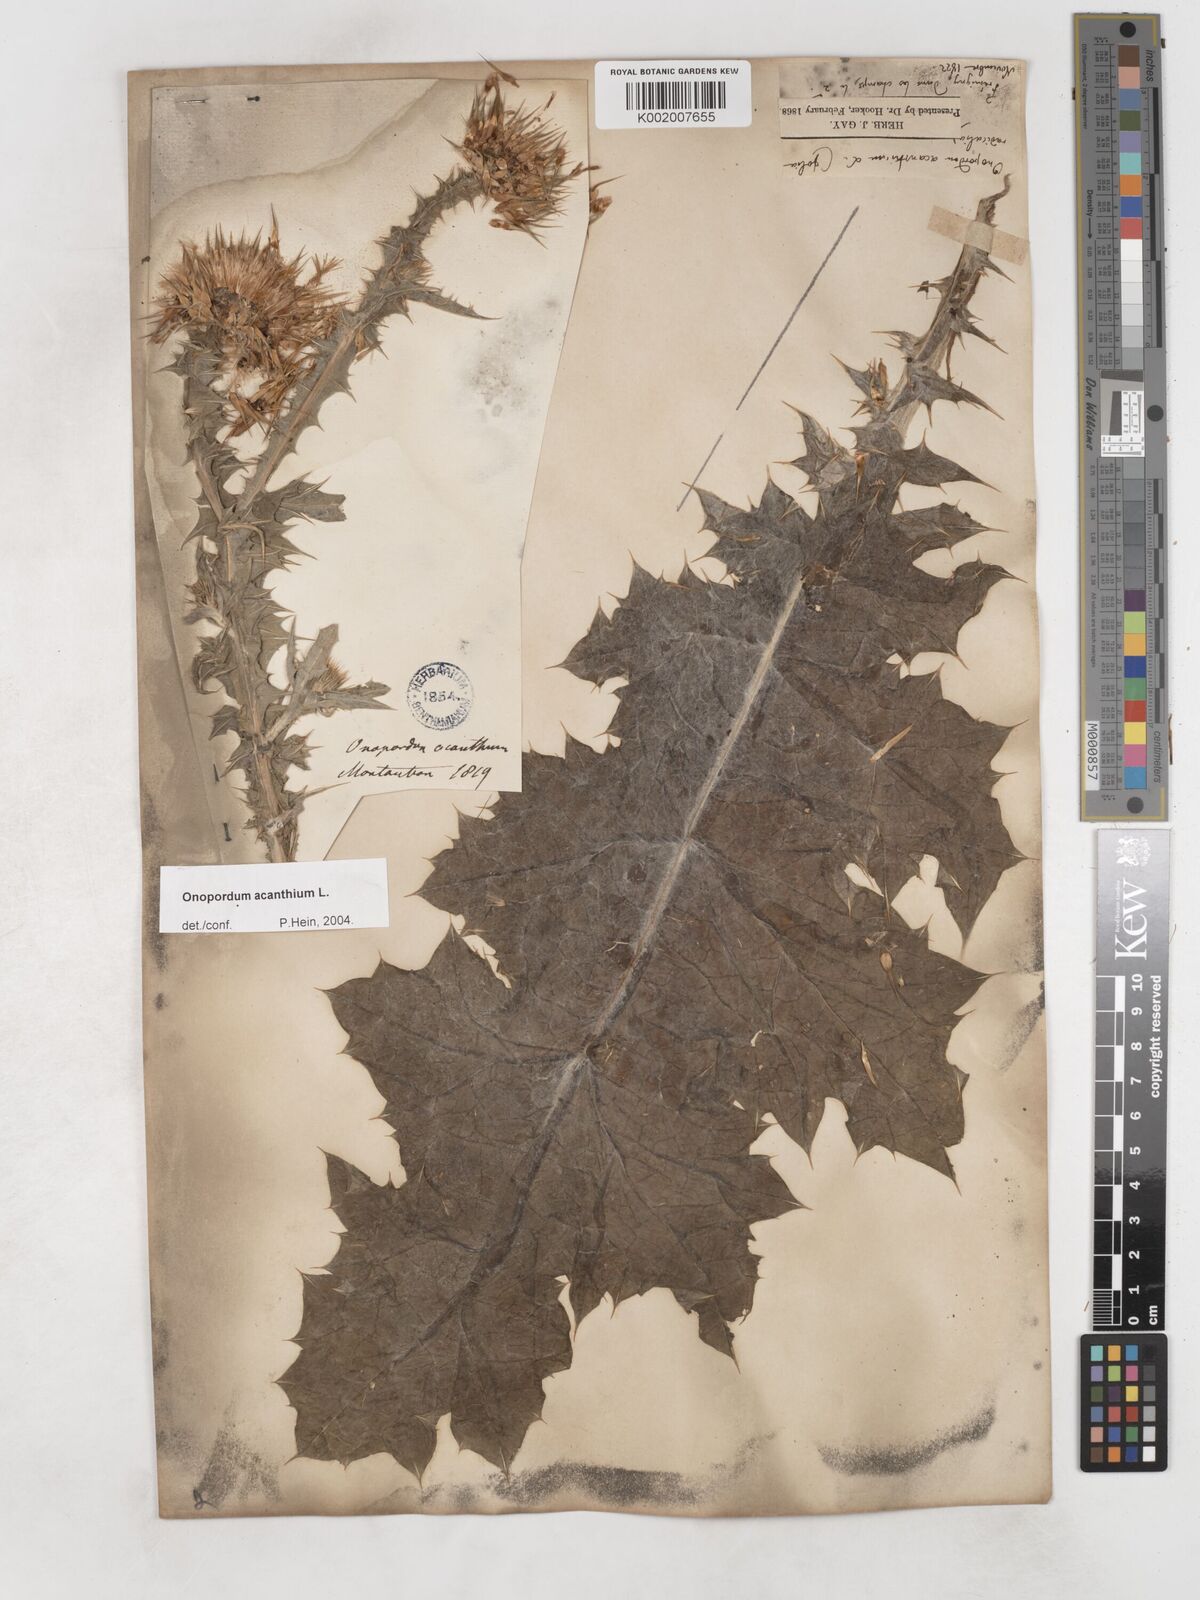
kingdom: Plantae
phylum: Tracheophyta
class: Magnoliopsida
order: Asterales
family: Asteraceae
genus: Onopordum
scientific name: Onopordum acanthium
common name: Scotch thistle
